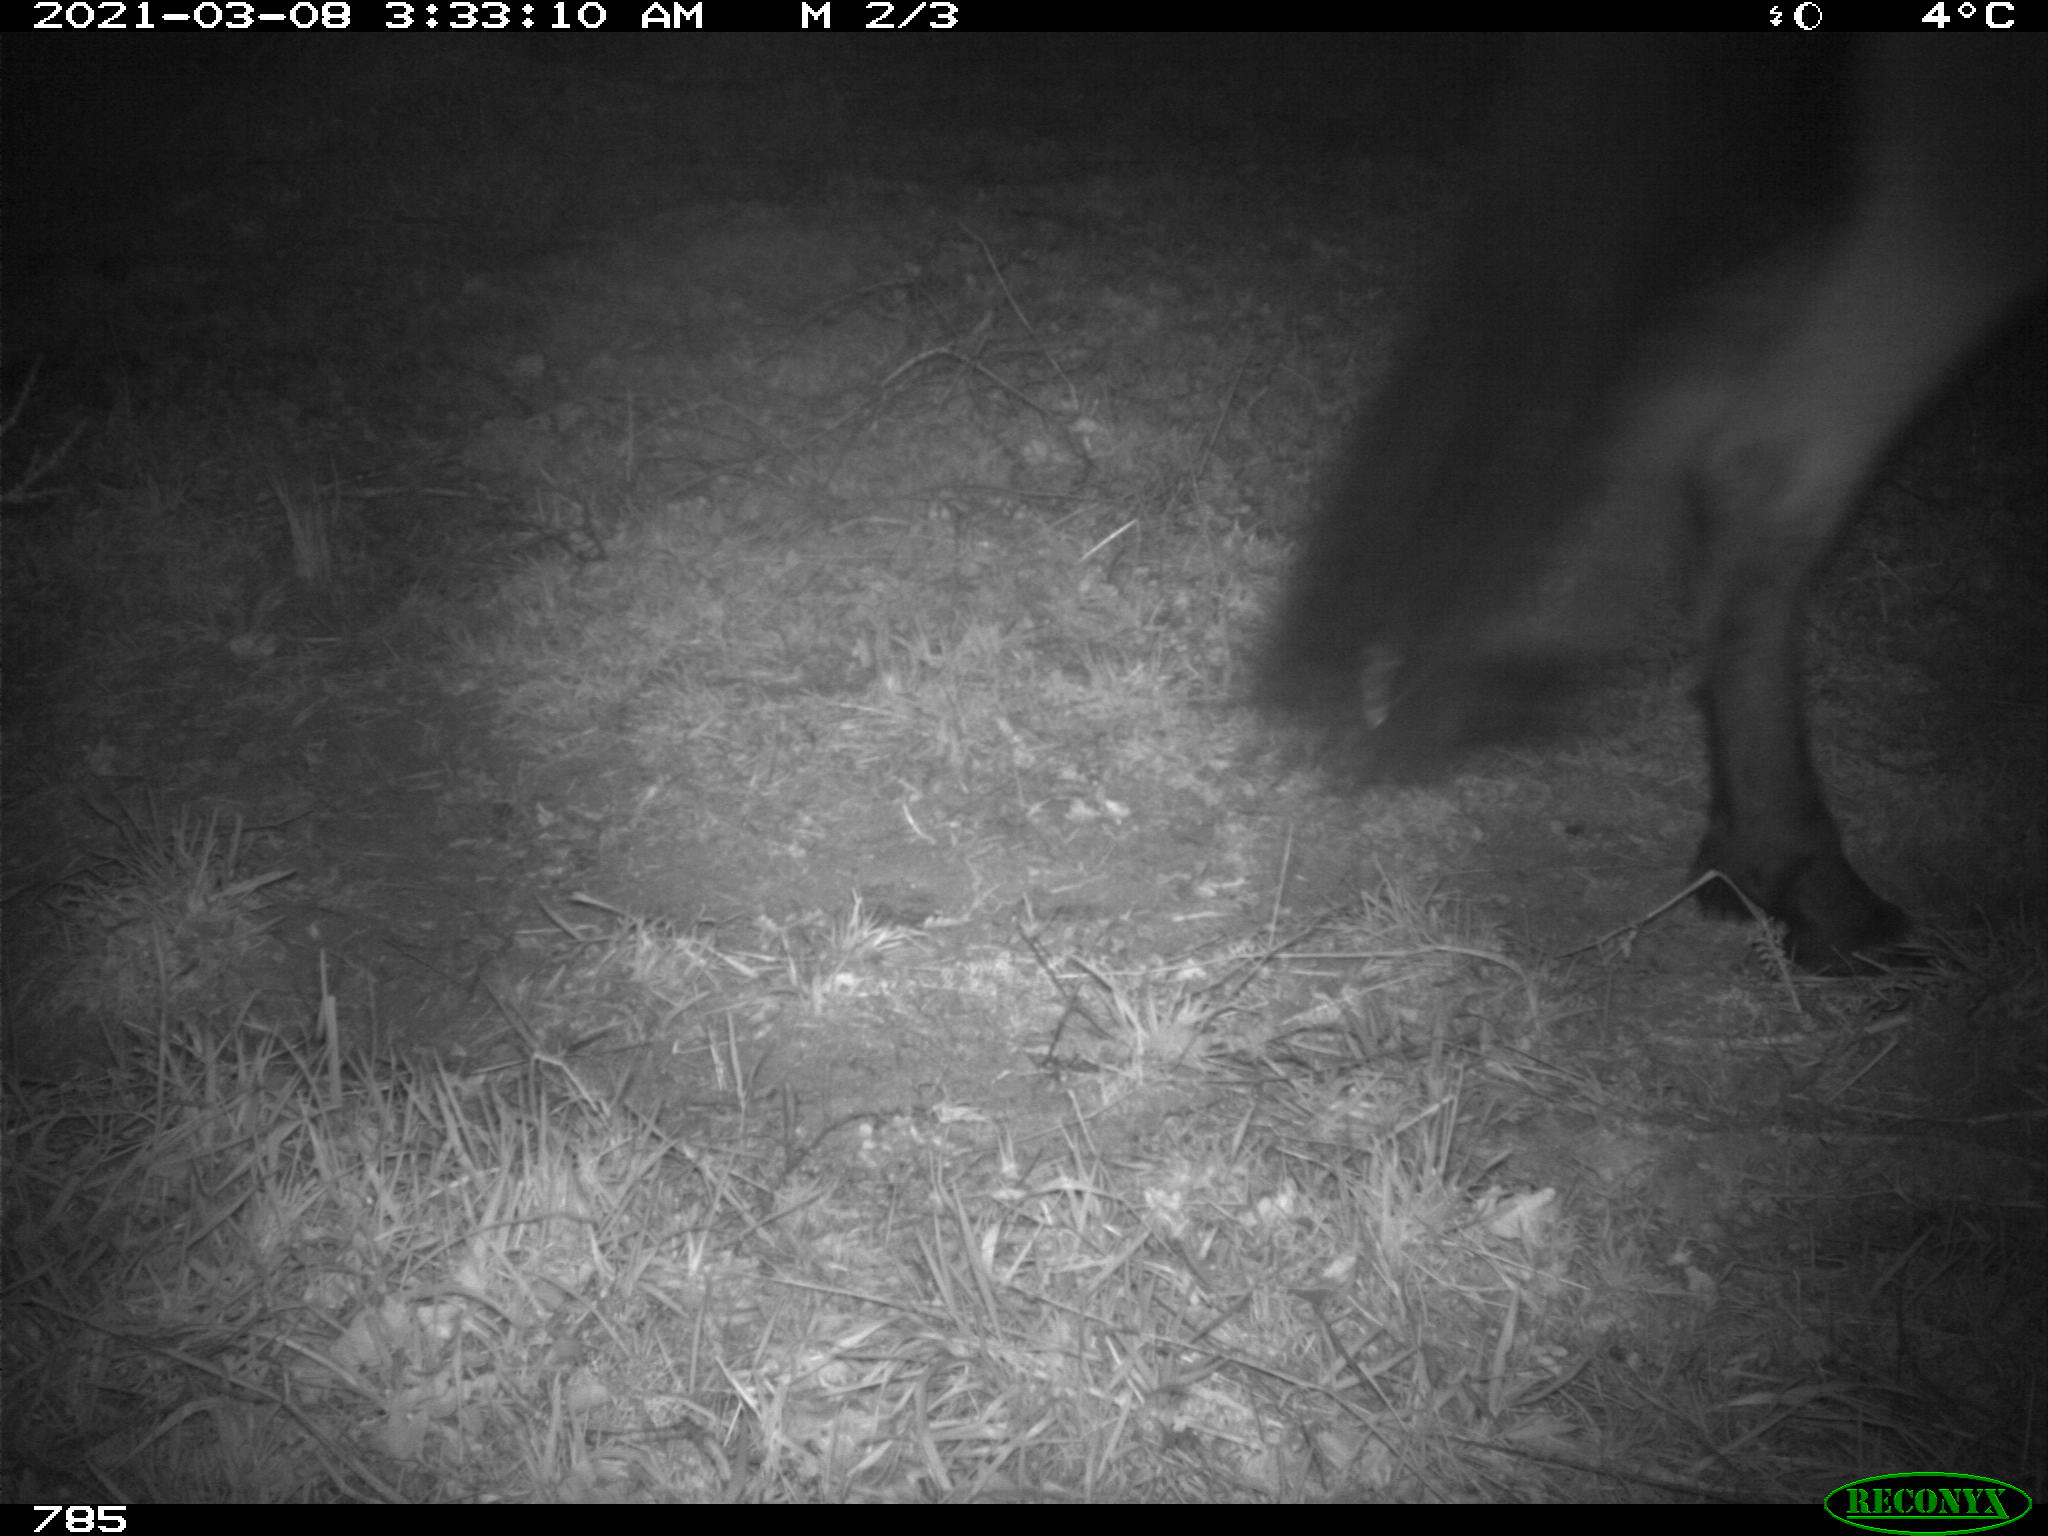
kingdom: Animalia
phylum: Chordata
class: Mammalia
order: Perissodactyla
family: Equidae
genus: Equus
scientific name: Equus caballus
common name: Horse
